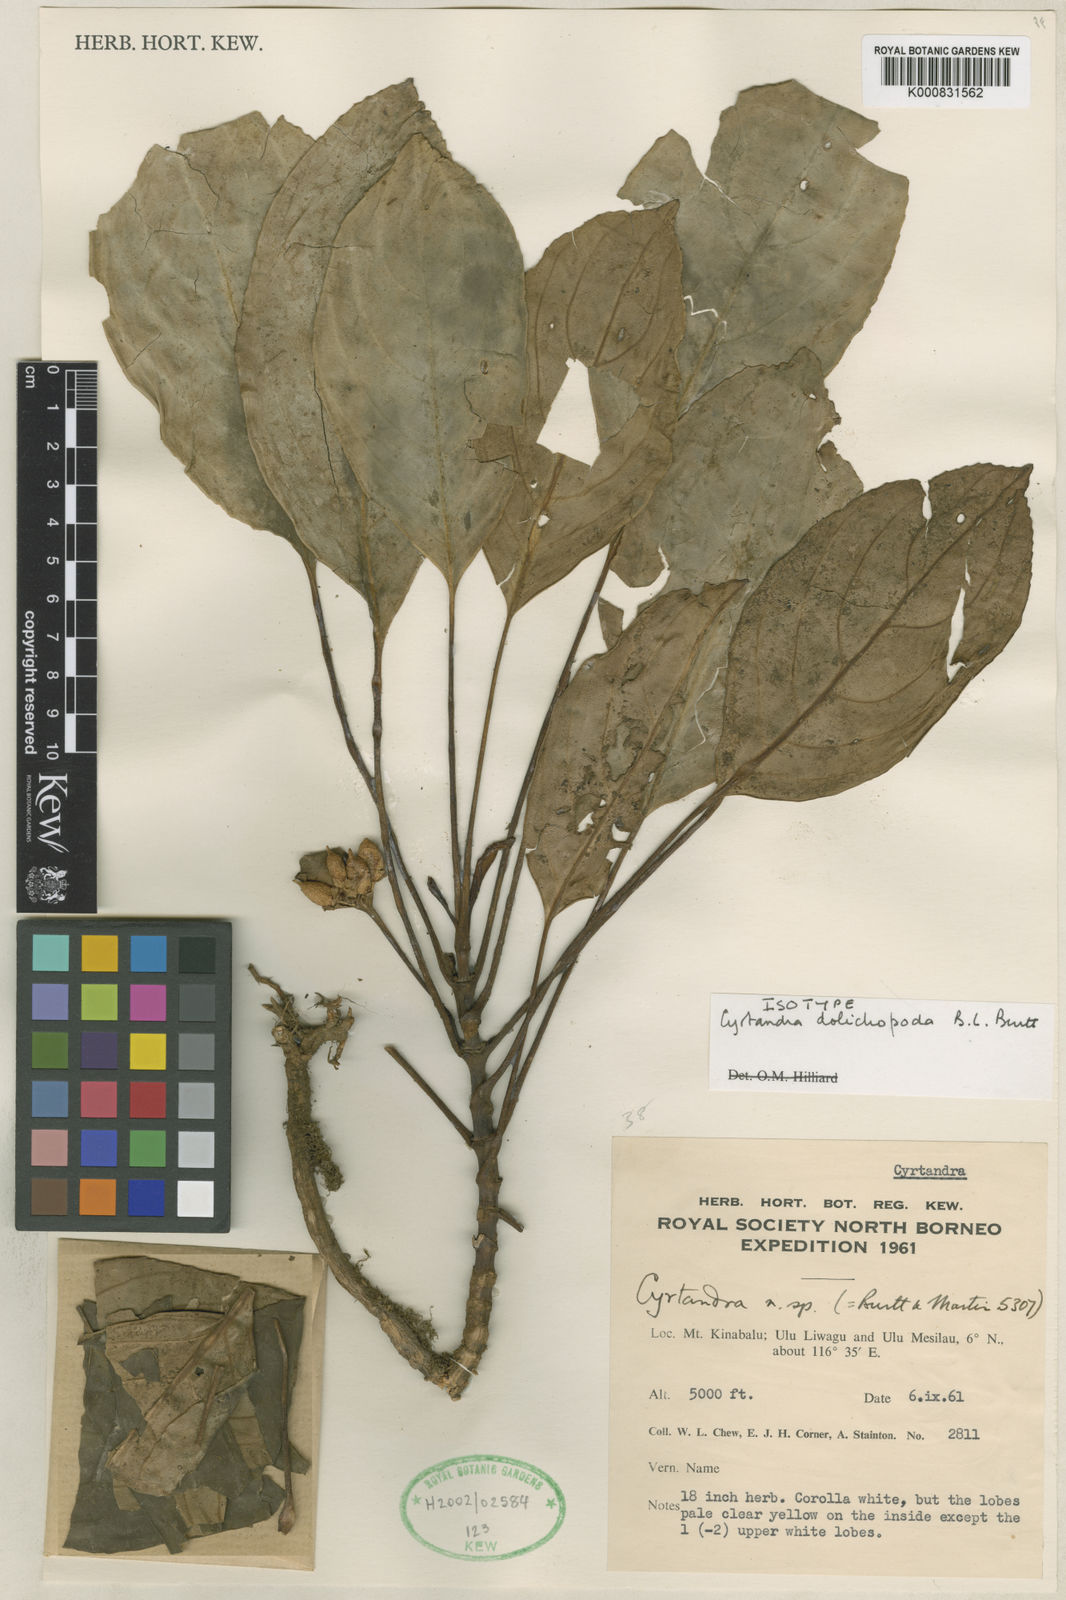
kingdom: Plantae
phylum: Tracheophyta
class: Magnoliopsida
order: Lamiales
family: Gesneriaceae
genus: Cyrtandra
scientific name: Cyrtandra dolichopoda
